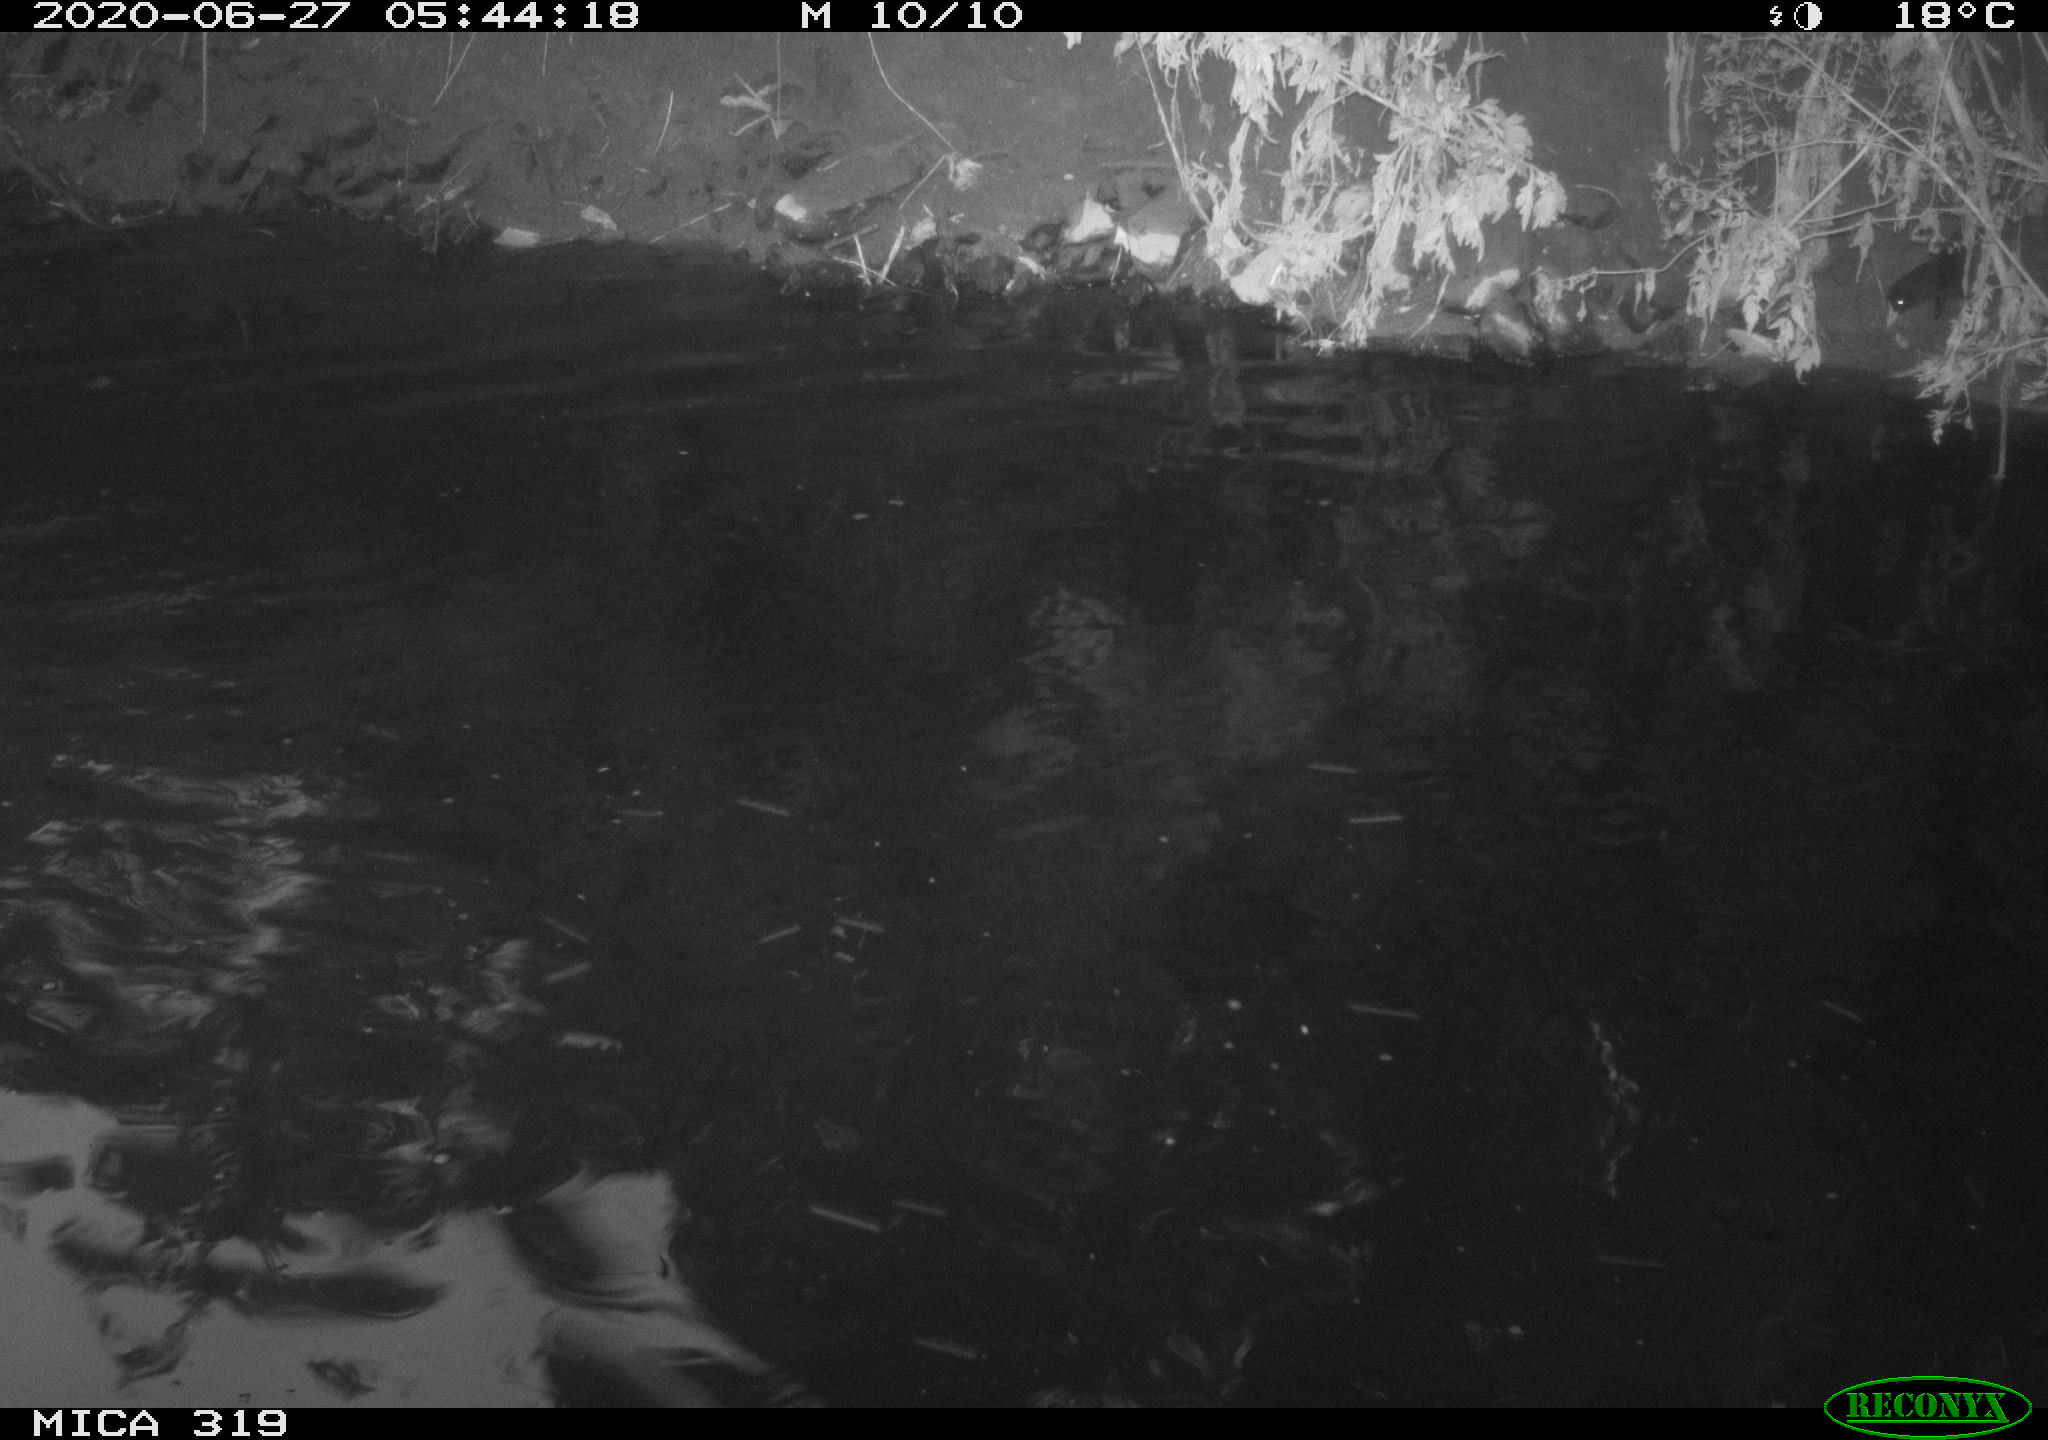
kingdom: Animalia
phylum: Chordata
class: Aves
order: Anseriformes
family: Anatidae
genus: Anas
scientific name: Anas platyrhynchos
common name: Mallard
